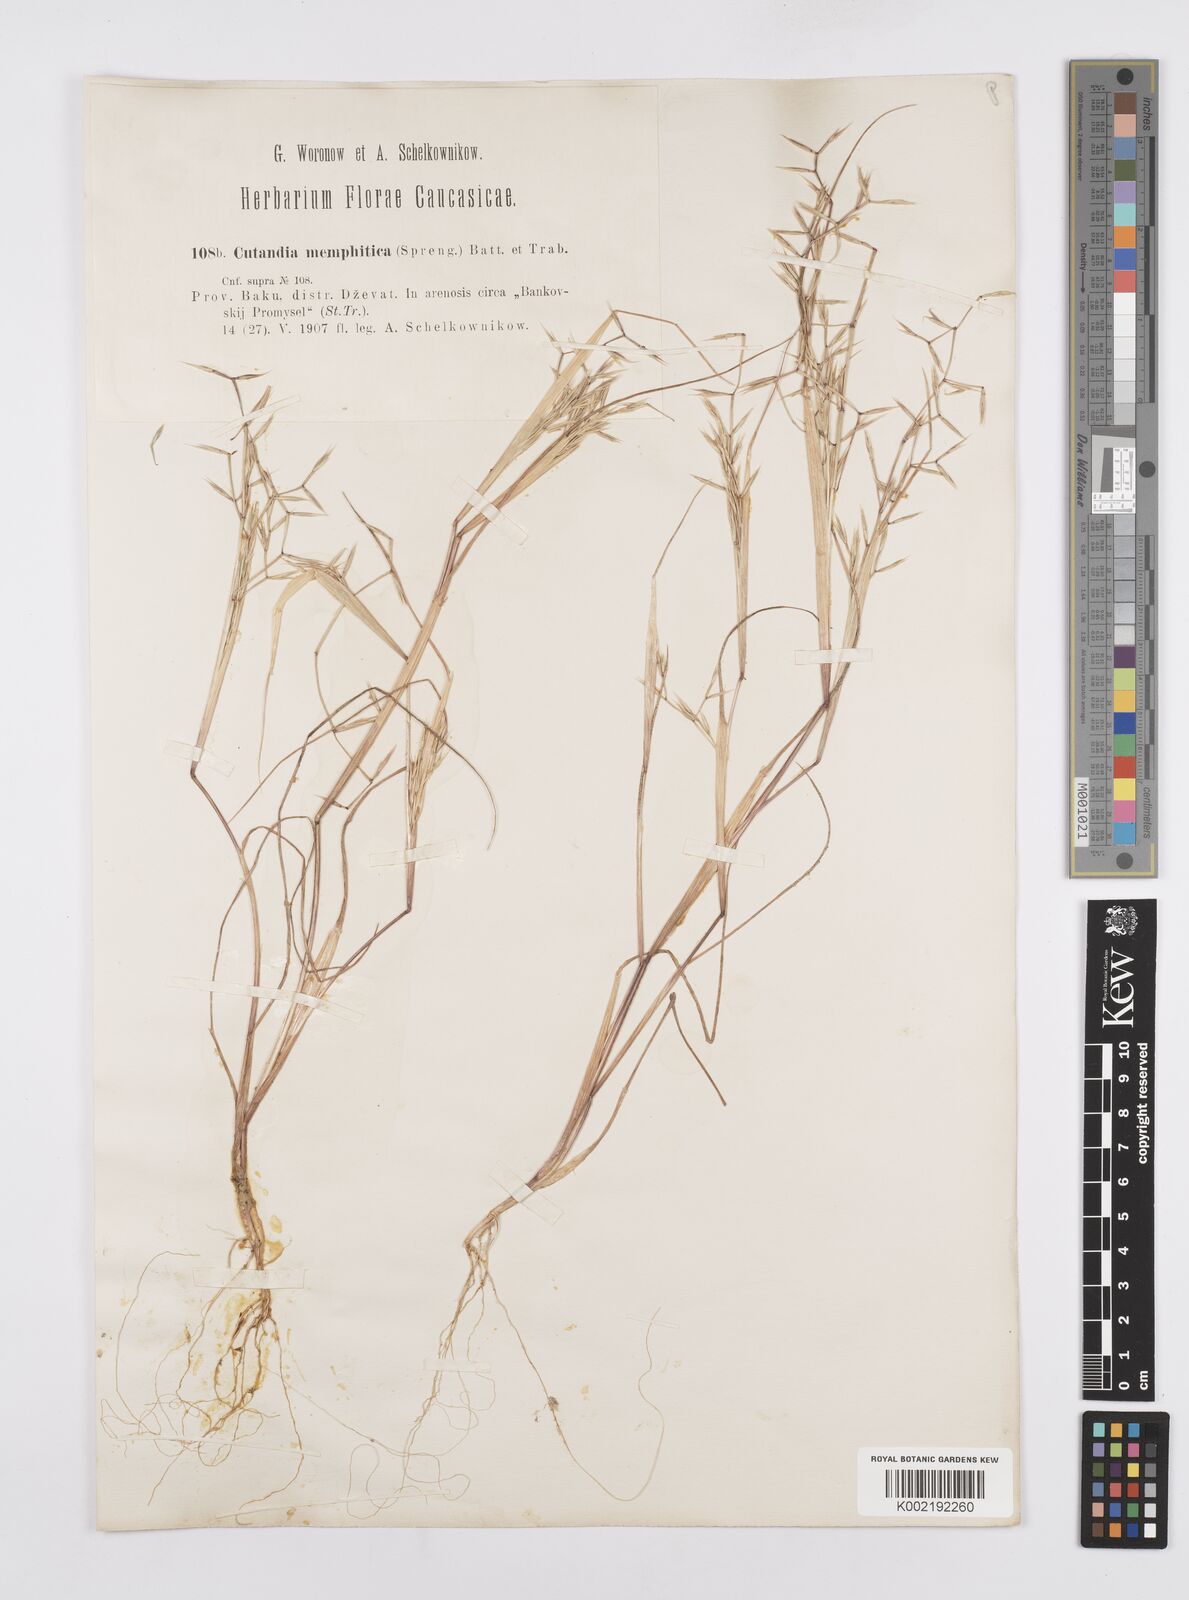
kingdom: Plantae
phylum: Tracheophyta
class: Liliopsida
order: Poales
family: Poaceae
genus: Cutandia
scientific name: Cutandia memphitica
